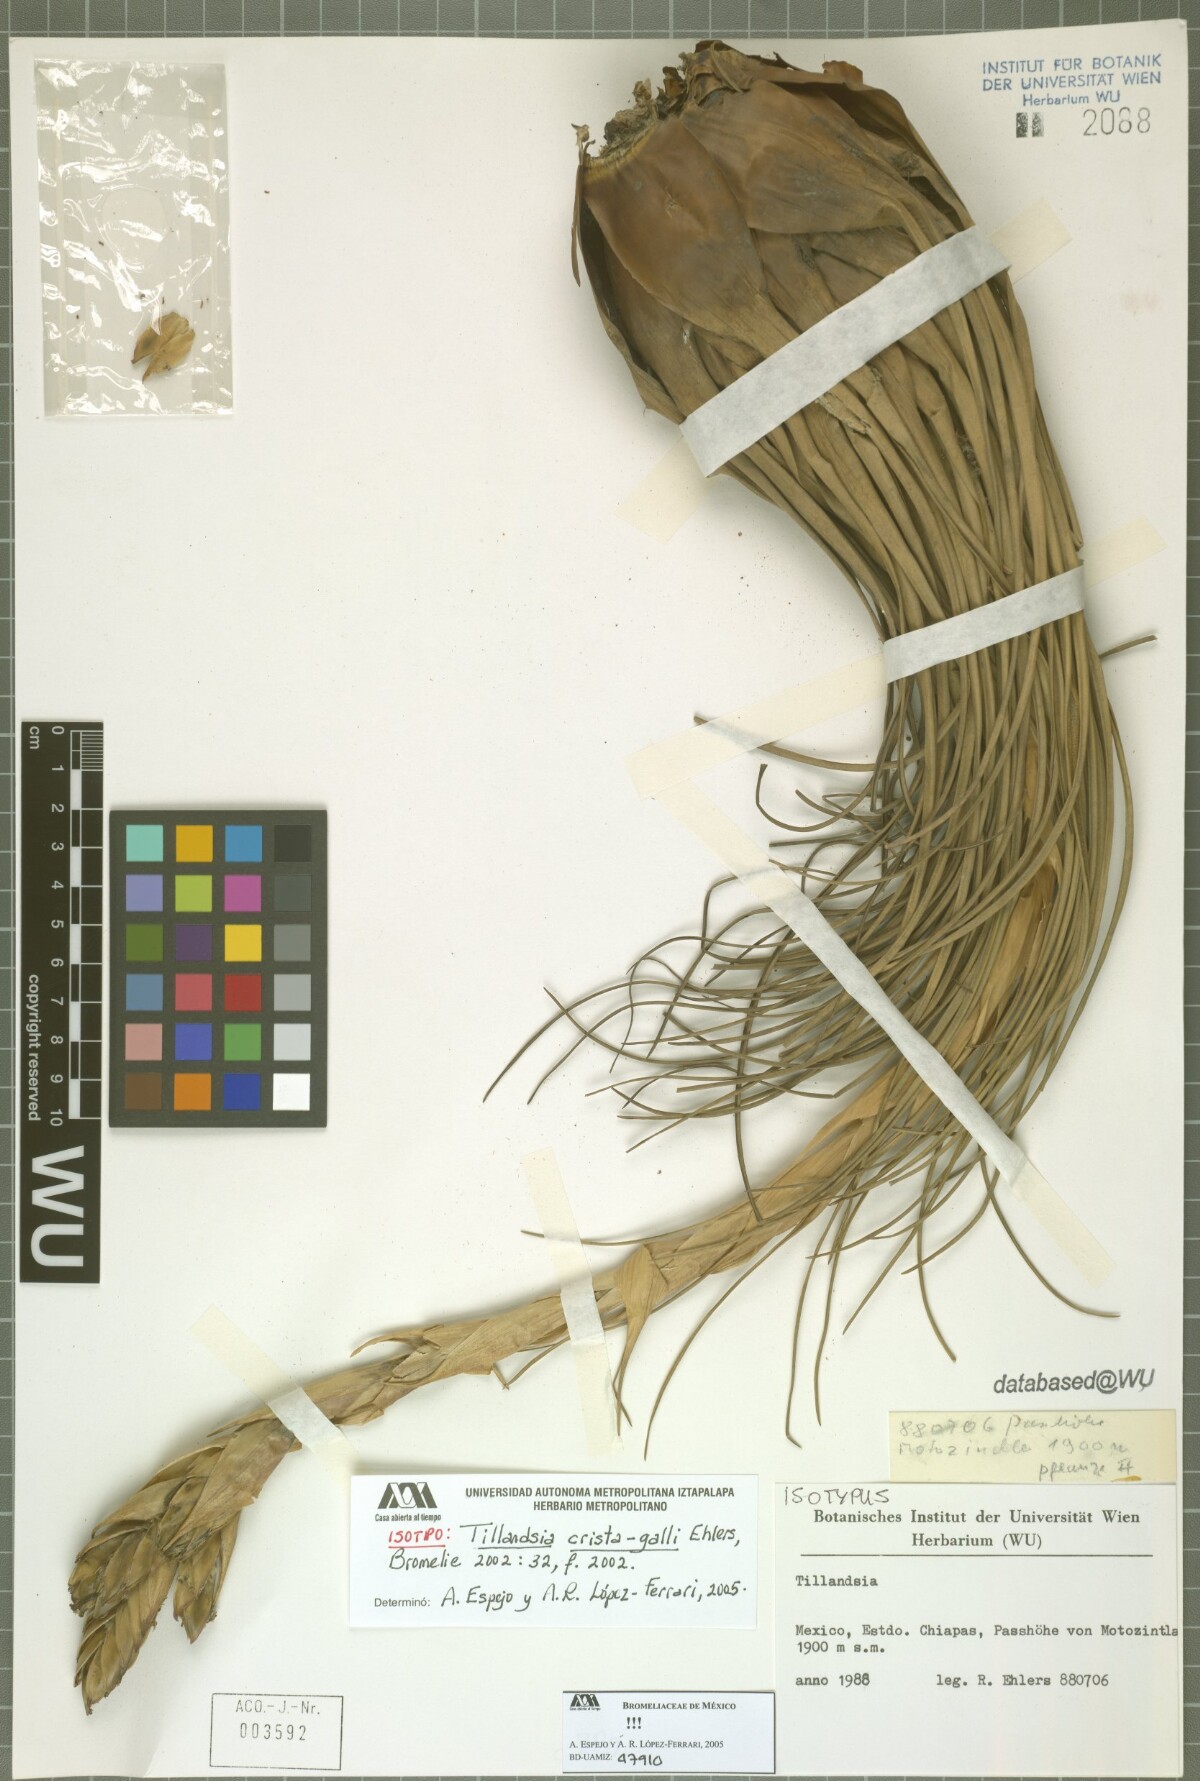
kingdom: Plantae
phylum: Tracheophyta
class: Liliopsida
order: Poales
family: Bromeliaceae
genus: Tillandsia
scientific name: Tillandsia crista-galli
